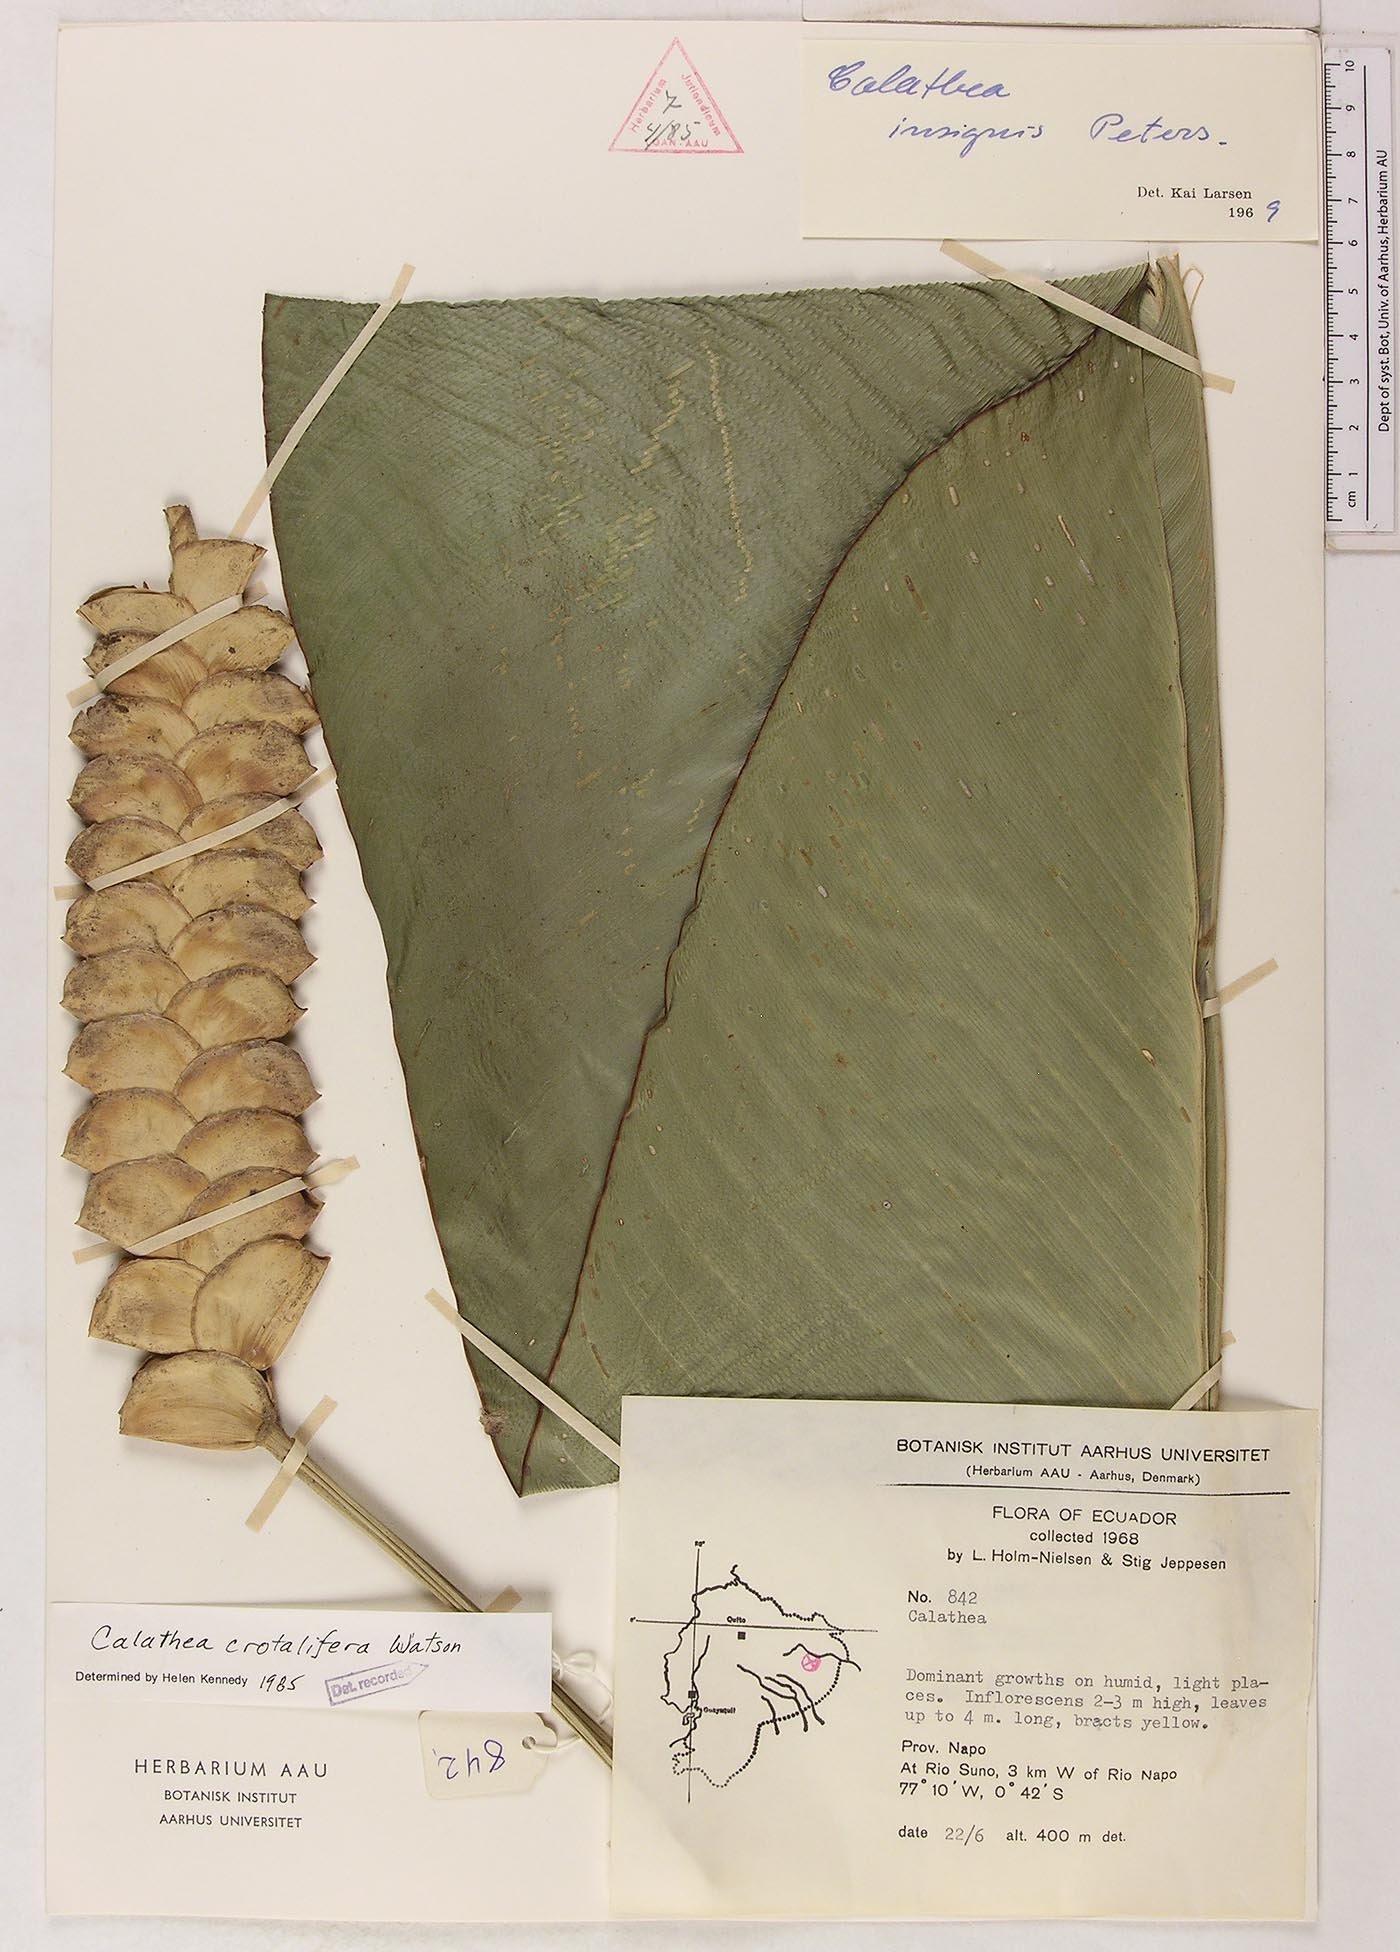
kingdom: Plantae
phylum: Tracheophyta
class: Liliopsida
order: Zingiberales
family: Marantaceae
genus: Calathea
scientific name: Calathea crotalifera
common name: Rattlesnake plant
